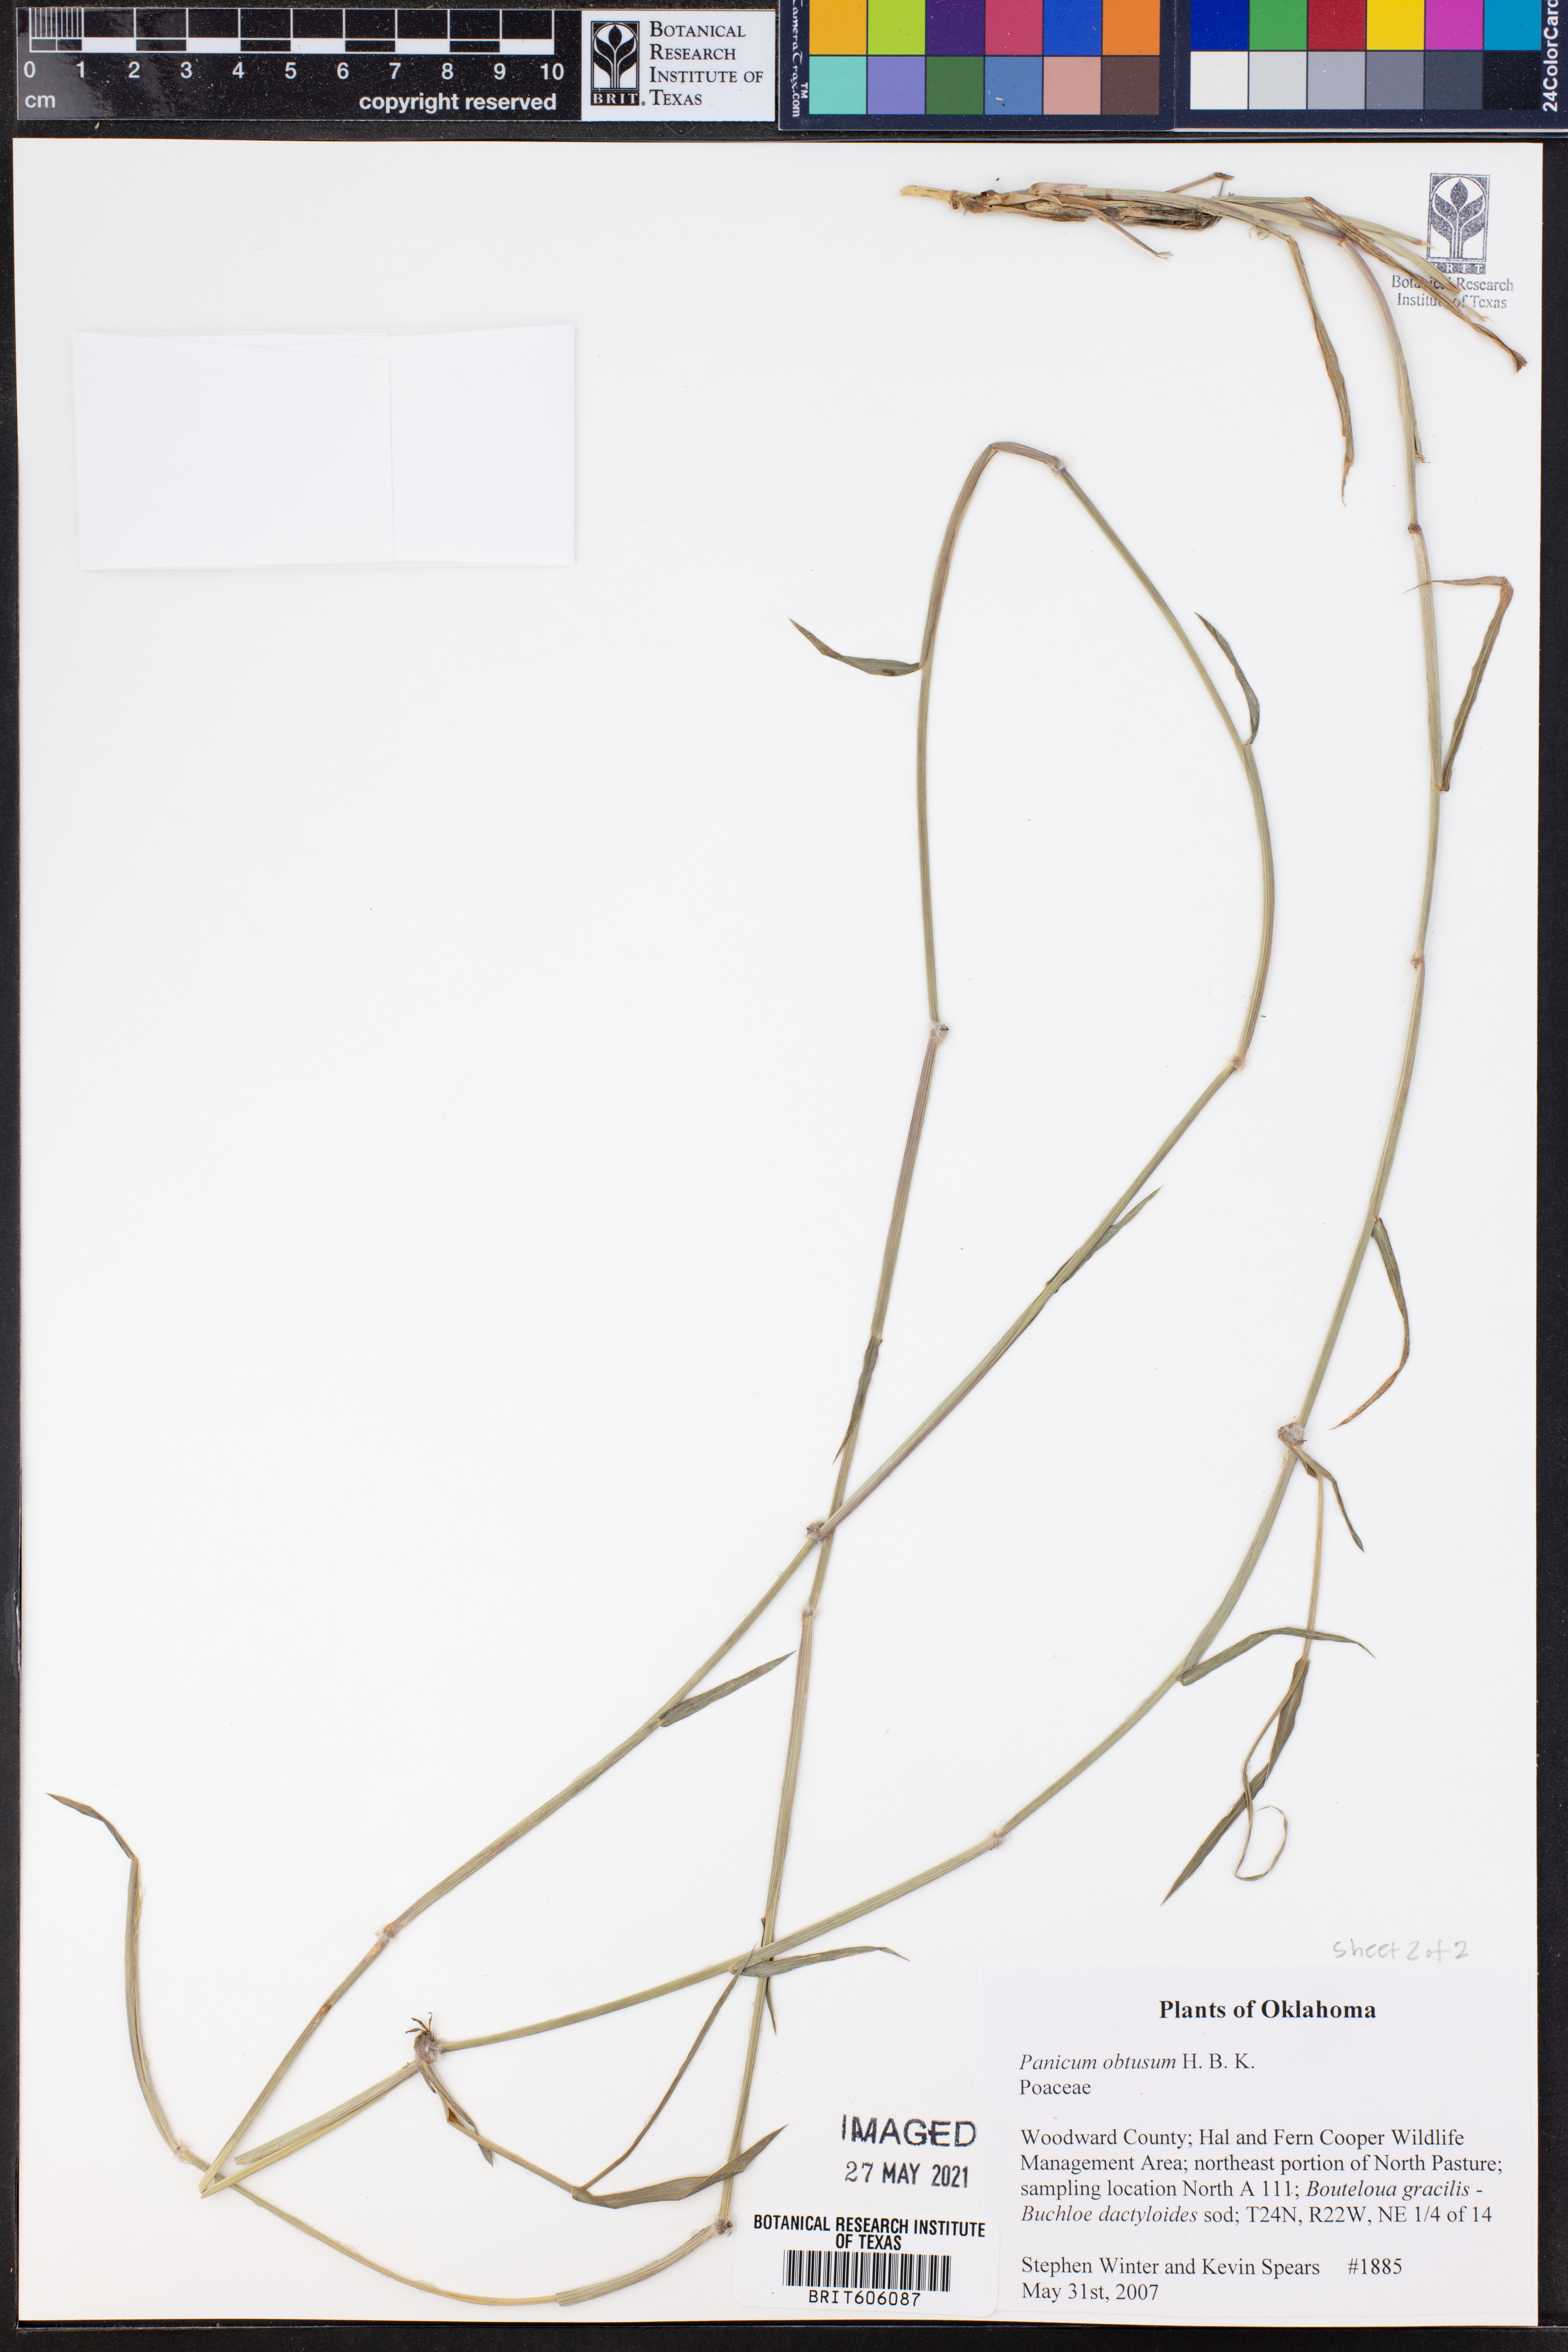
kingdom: Plantae
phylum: Tracheophyta
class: Liliopsida
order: Poales
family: Poaceae
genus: Hopia
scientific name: Hopia obtusa
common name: Vine-mesquite
